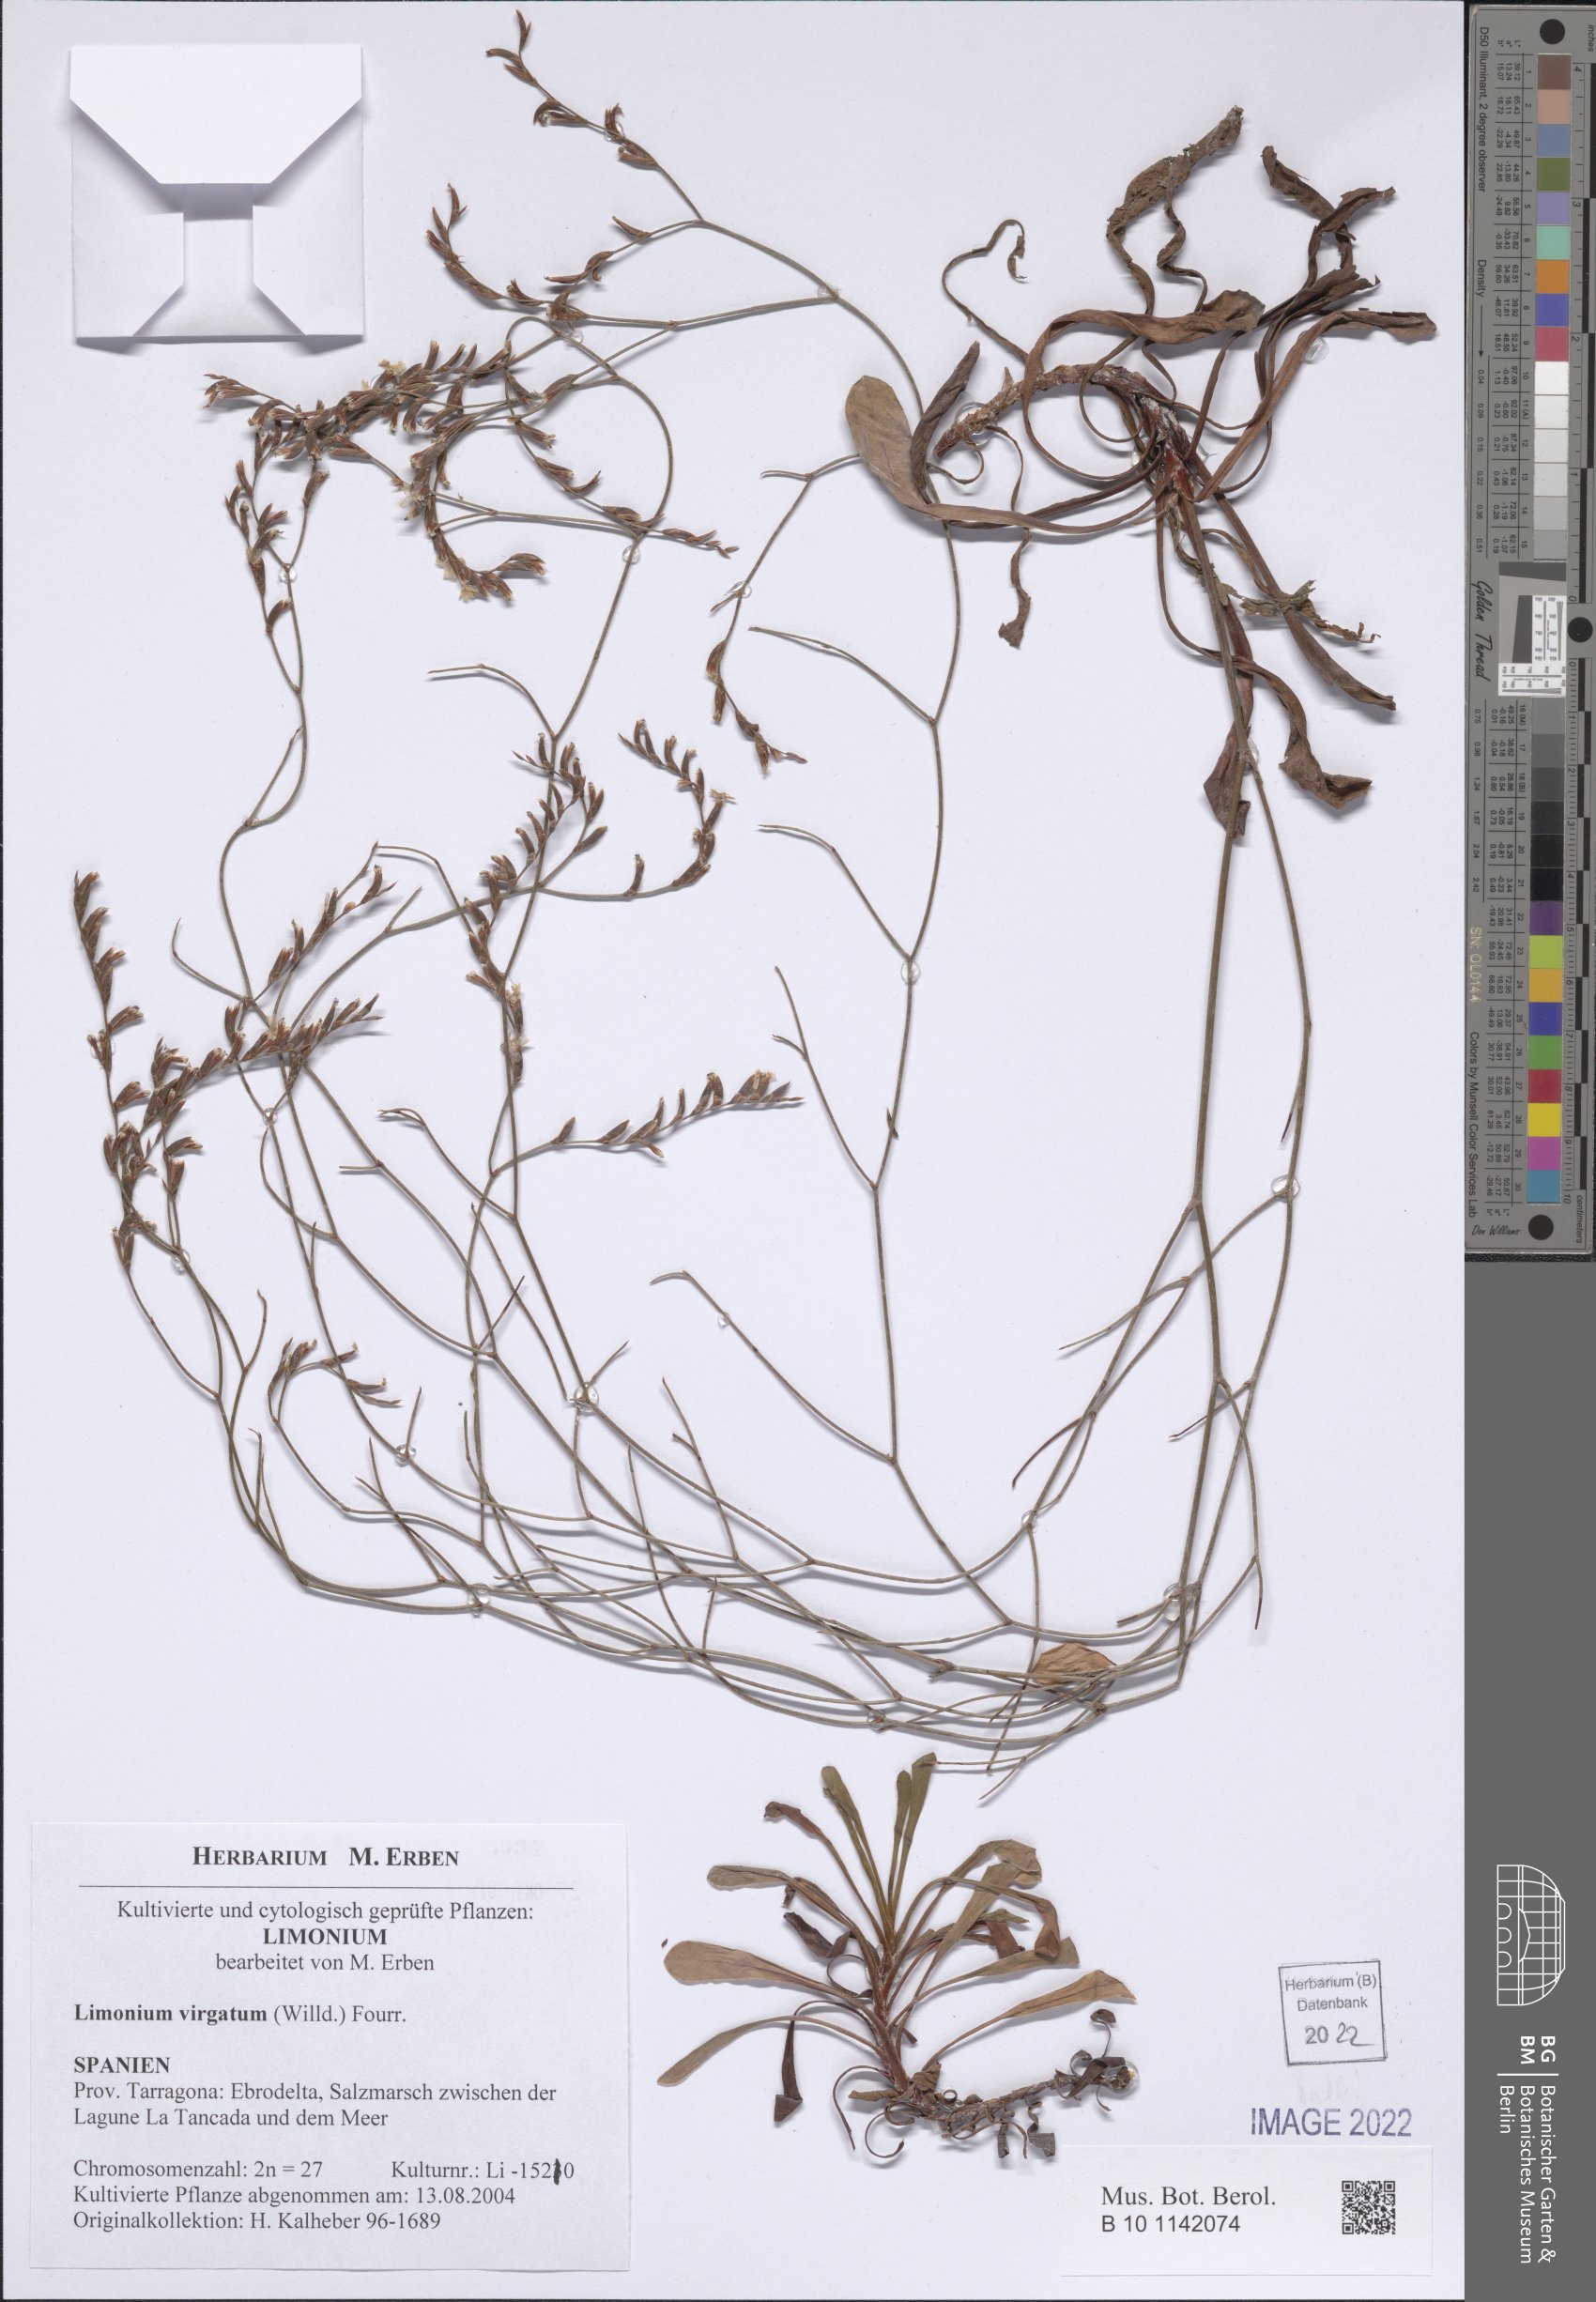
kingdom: Plantae
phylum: Tracheophyta
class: Magnoliopsida
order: Caryophyllales
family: Plumbaginaceae
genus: Limonium
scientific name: Limonium virgatum
